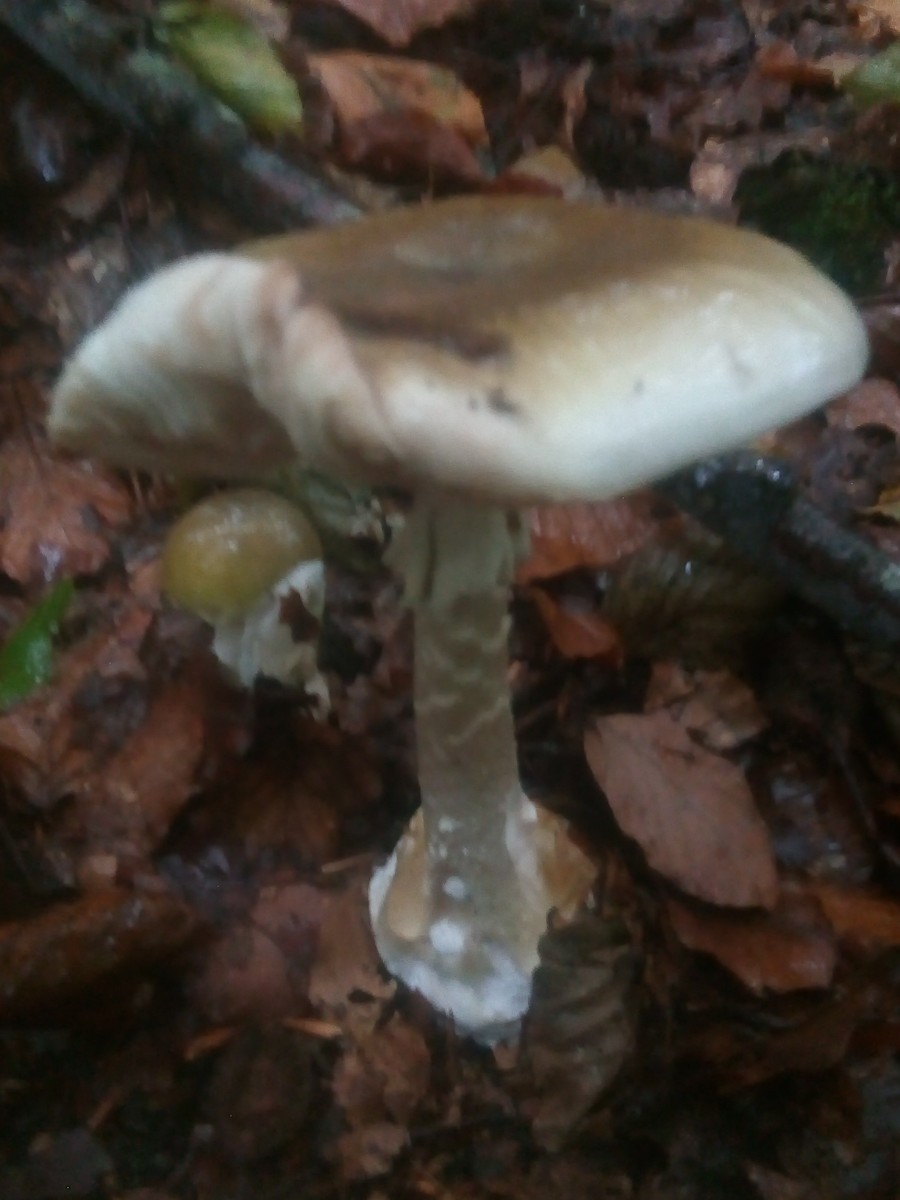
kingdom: Fungi
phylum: Basidiomycota
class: Agaricomycetes
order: Agaricales
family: Amanitaceae
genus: Amanita
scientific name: Amanita phalloides
